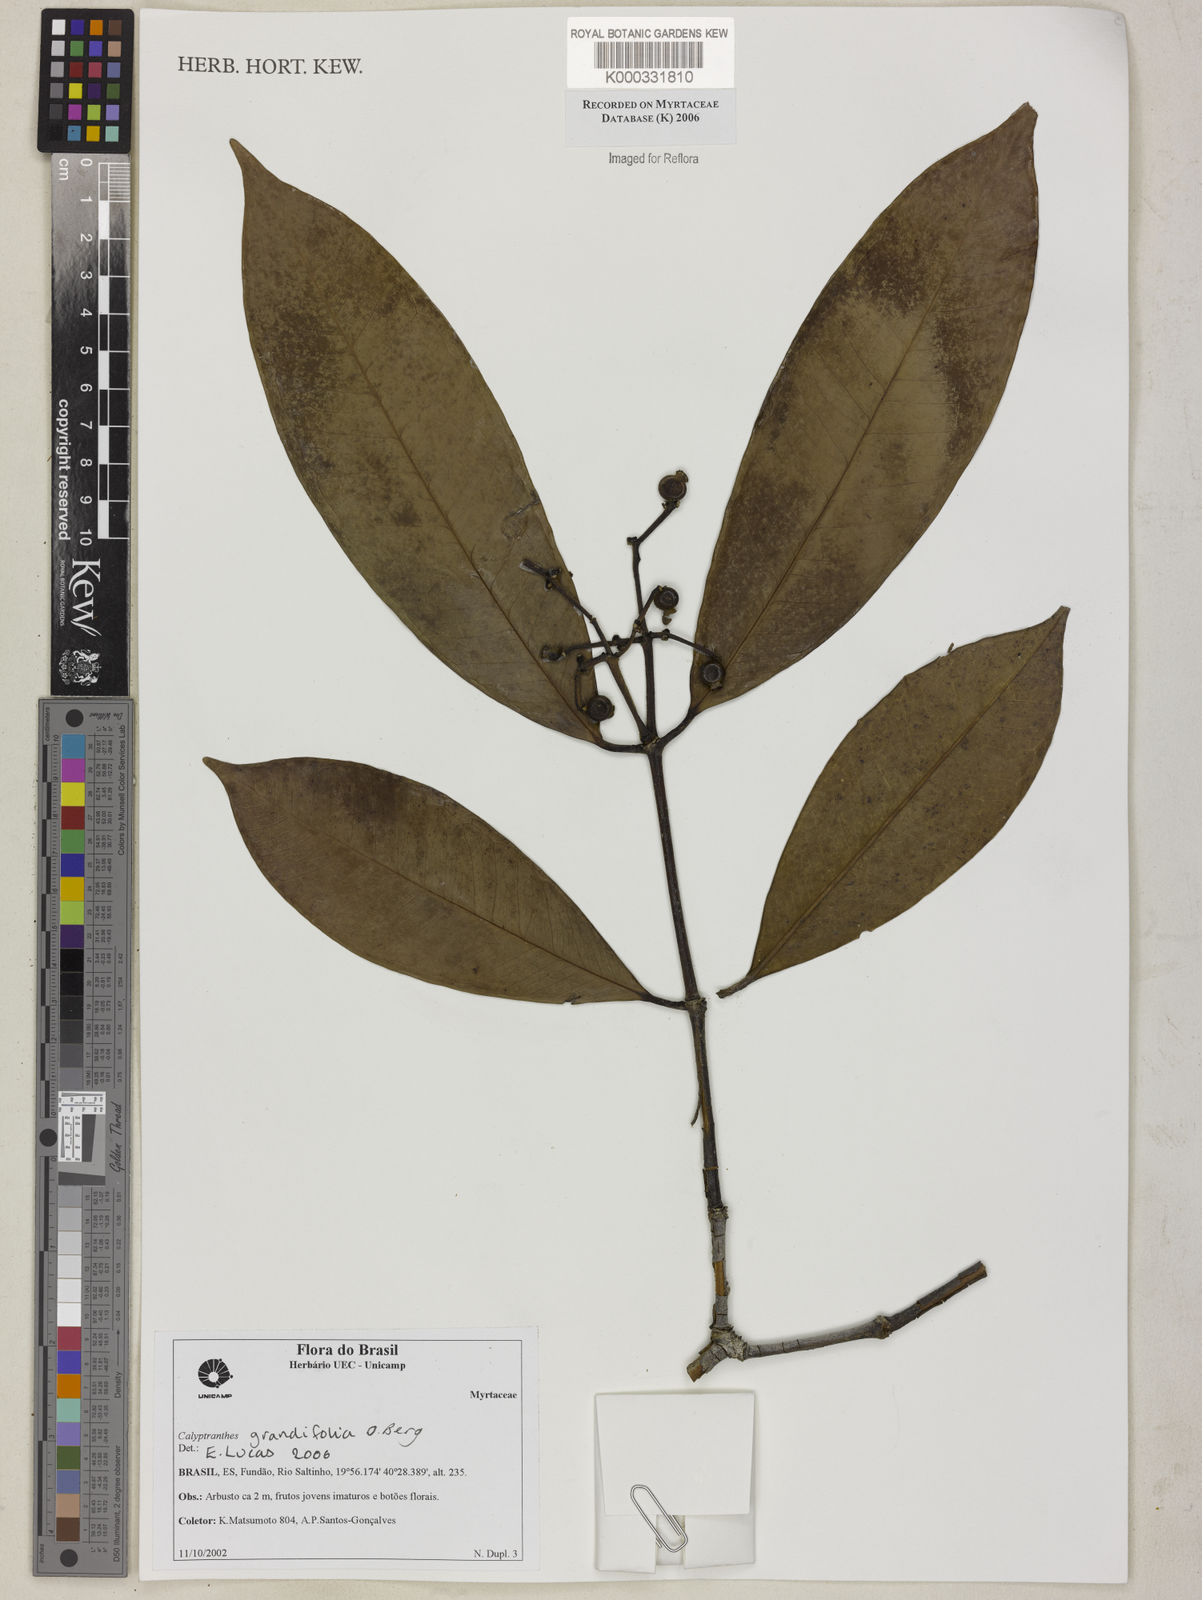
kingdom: Plantae
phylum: Tracheophyta
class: Magnoliopsida
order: Myrtales
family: Myrtaceae
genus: Calyptranthes
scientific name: Calyptranthes grandifolia
